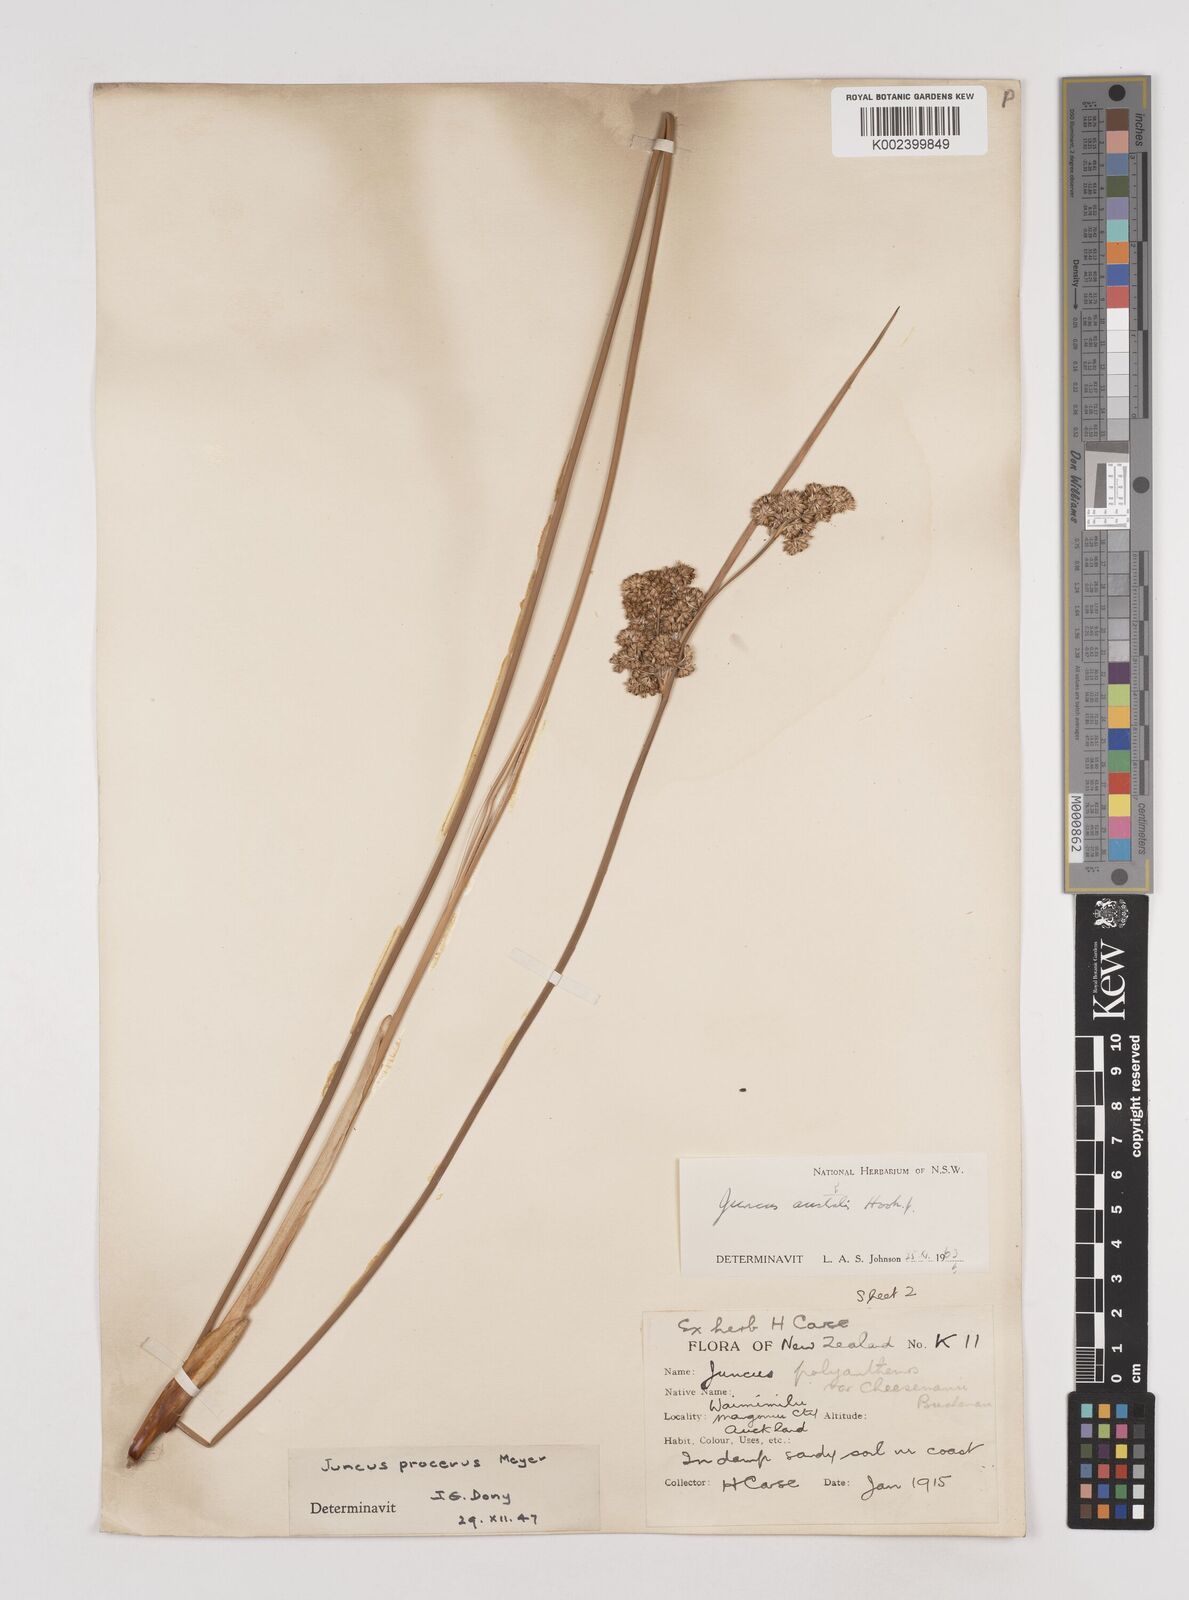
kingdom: Plantae
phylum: Tracheophyta
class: Liliopsida
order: Poales
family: Juncaceae
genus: Juncus
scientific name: Juncus australis
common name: Austral rush
